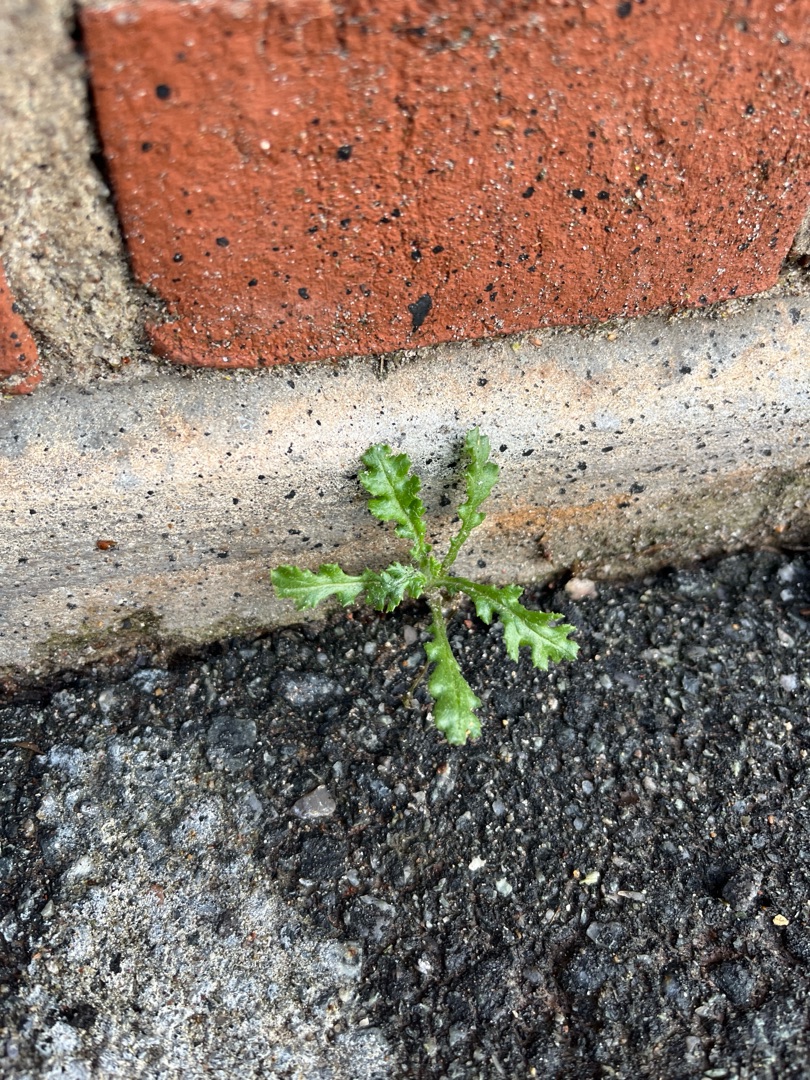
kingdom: Plantae
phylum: Tracheophyta
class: Magnoliopsida
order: Asterales
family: Asteraceae
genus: Senecio
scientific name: Senecio vulgaris
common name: Almindelig brandbæger
